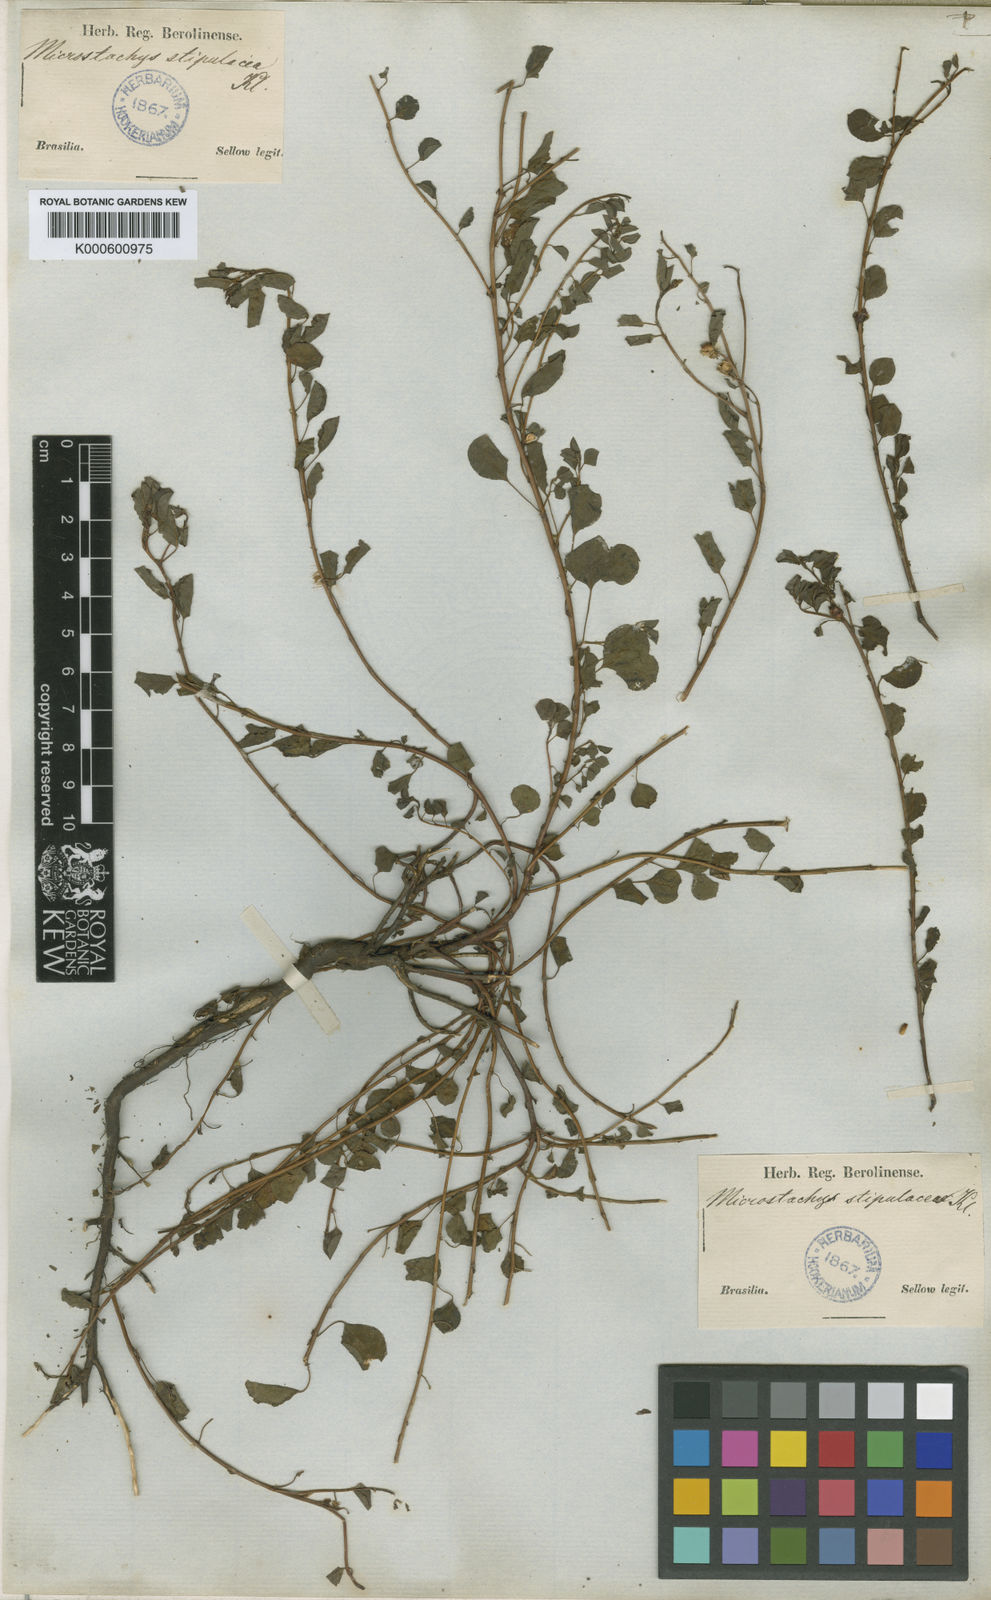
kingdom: Plantae
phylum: Tracheophyta
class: Magnoliopsida
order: Malpighiales
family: Euphorbiaceae
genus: Sebastiania
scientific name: Sebastiania
